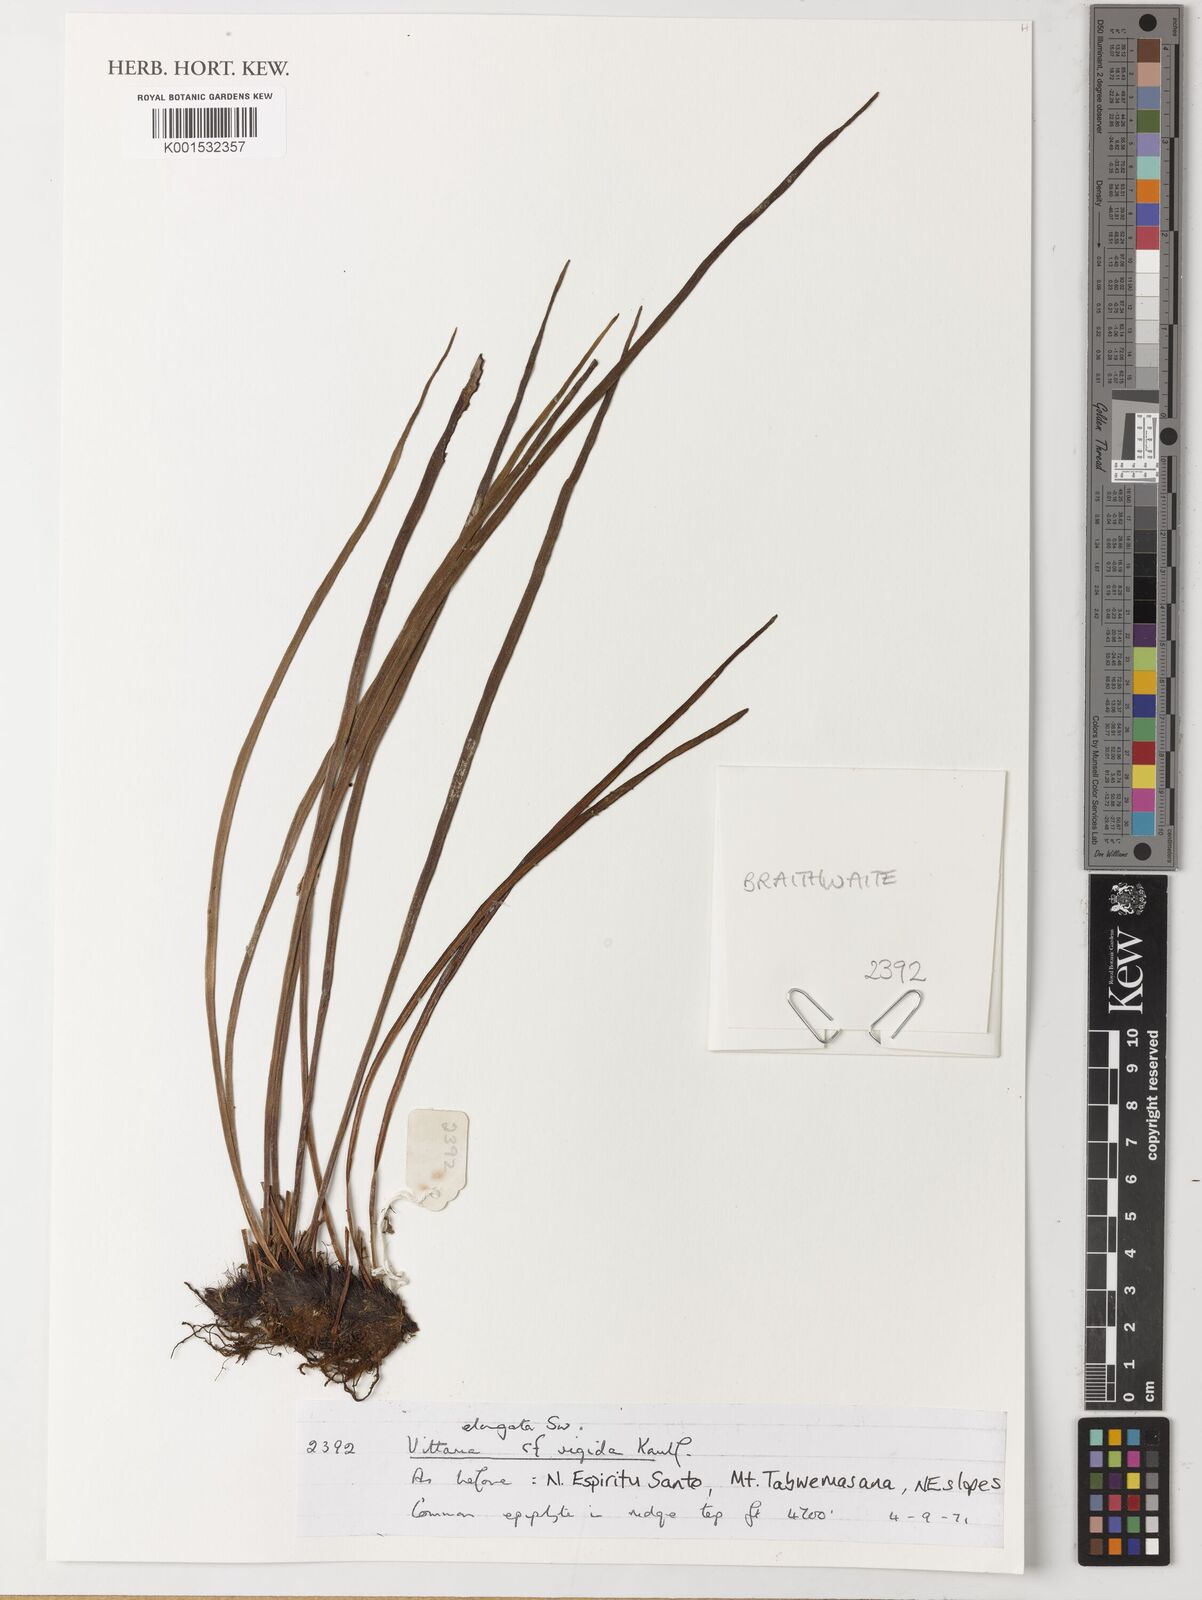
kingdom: Plantae
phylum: Tracheophyta
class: Polypodiopsida
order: Polypodiales
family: Pteridaceae
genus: Haplopteris
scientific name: Haplopteris elongata
